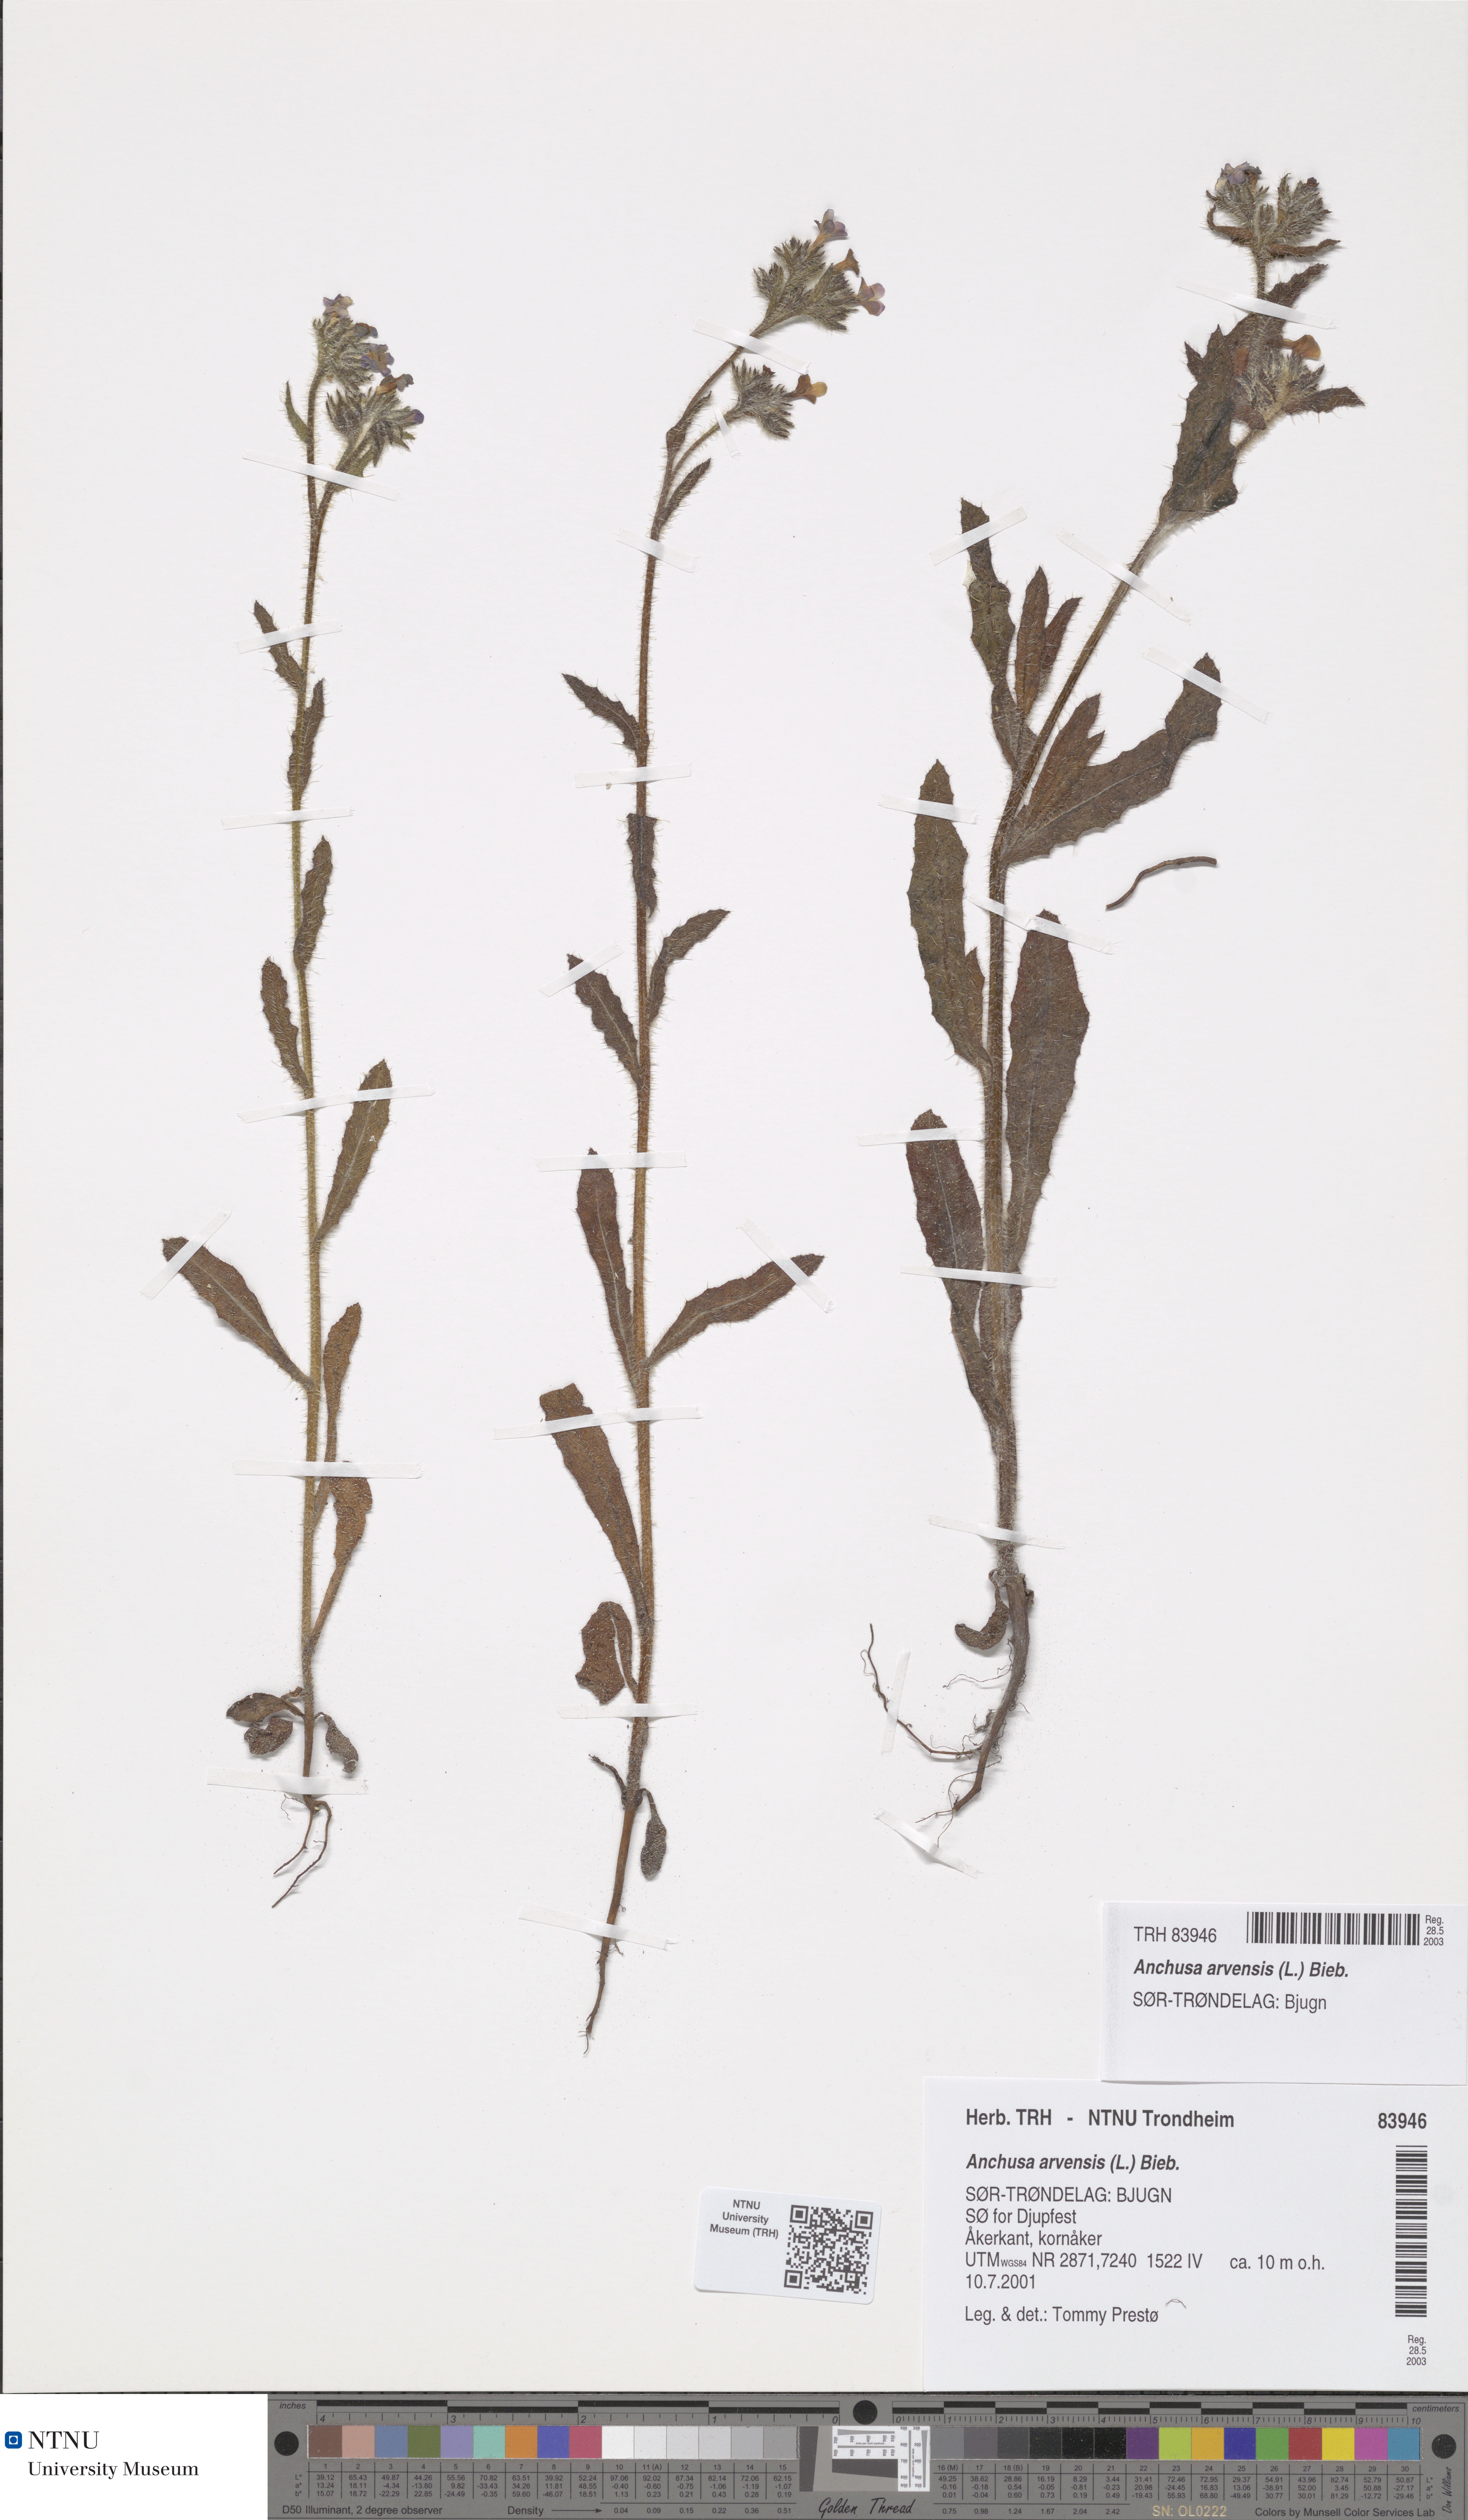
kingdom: Plantae
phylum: Tracheophyta
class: Magnoliopsida
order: Boraginales
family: Boraginaceae
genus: Lycopsis
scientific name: Lycopsis arvensis
